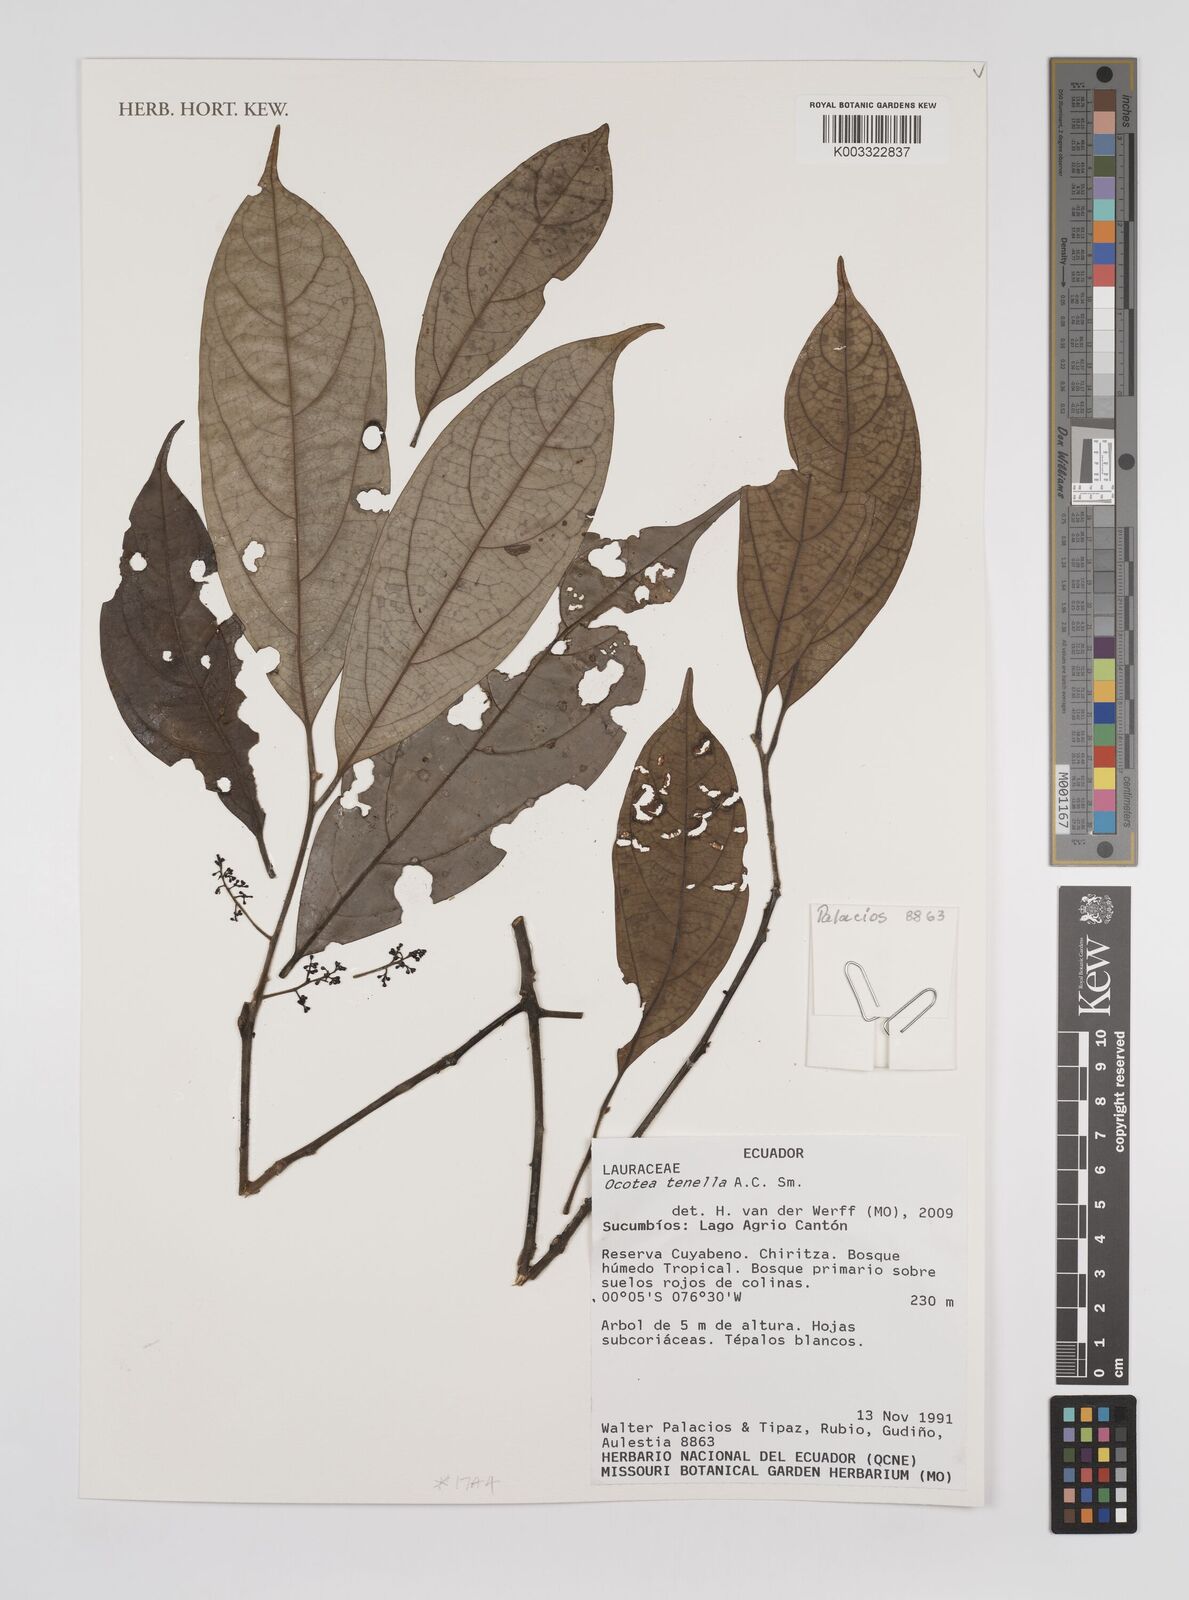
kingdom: Plantae
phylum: Tracheophyta
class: Magnoliopsida
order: Laurales
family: Lauraceae
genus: Ocotea
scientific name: Ocotea tenella
